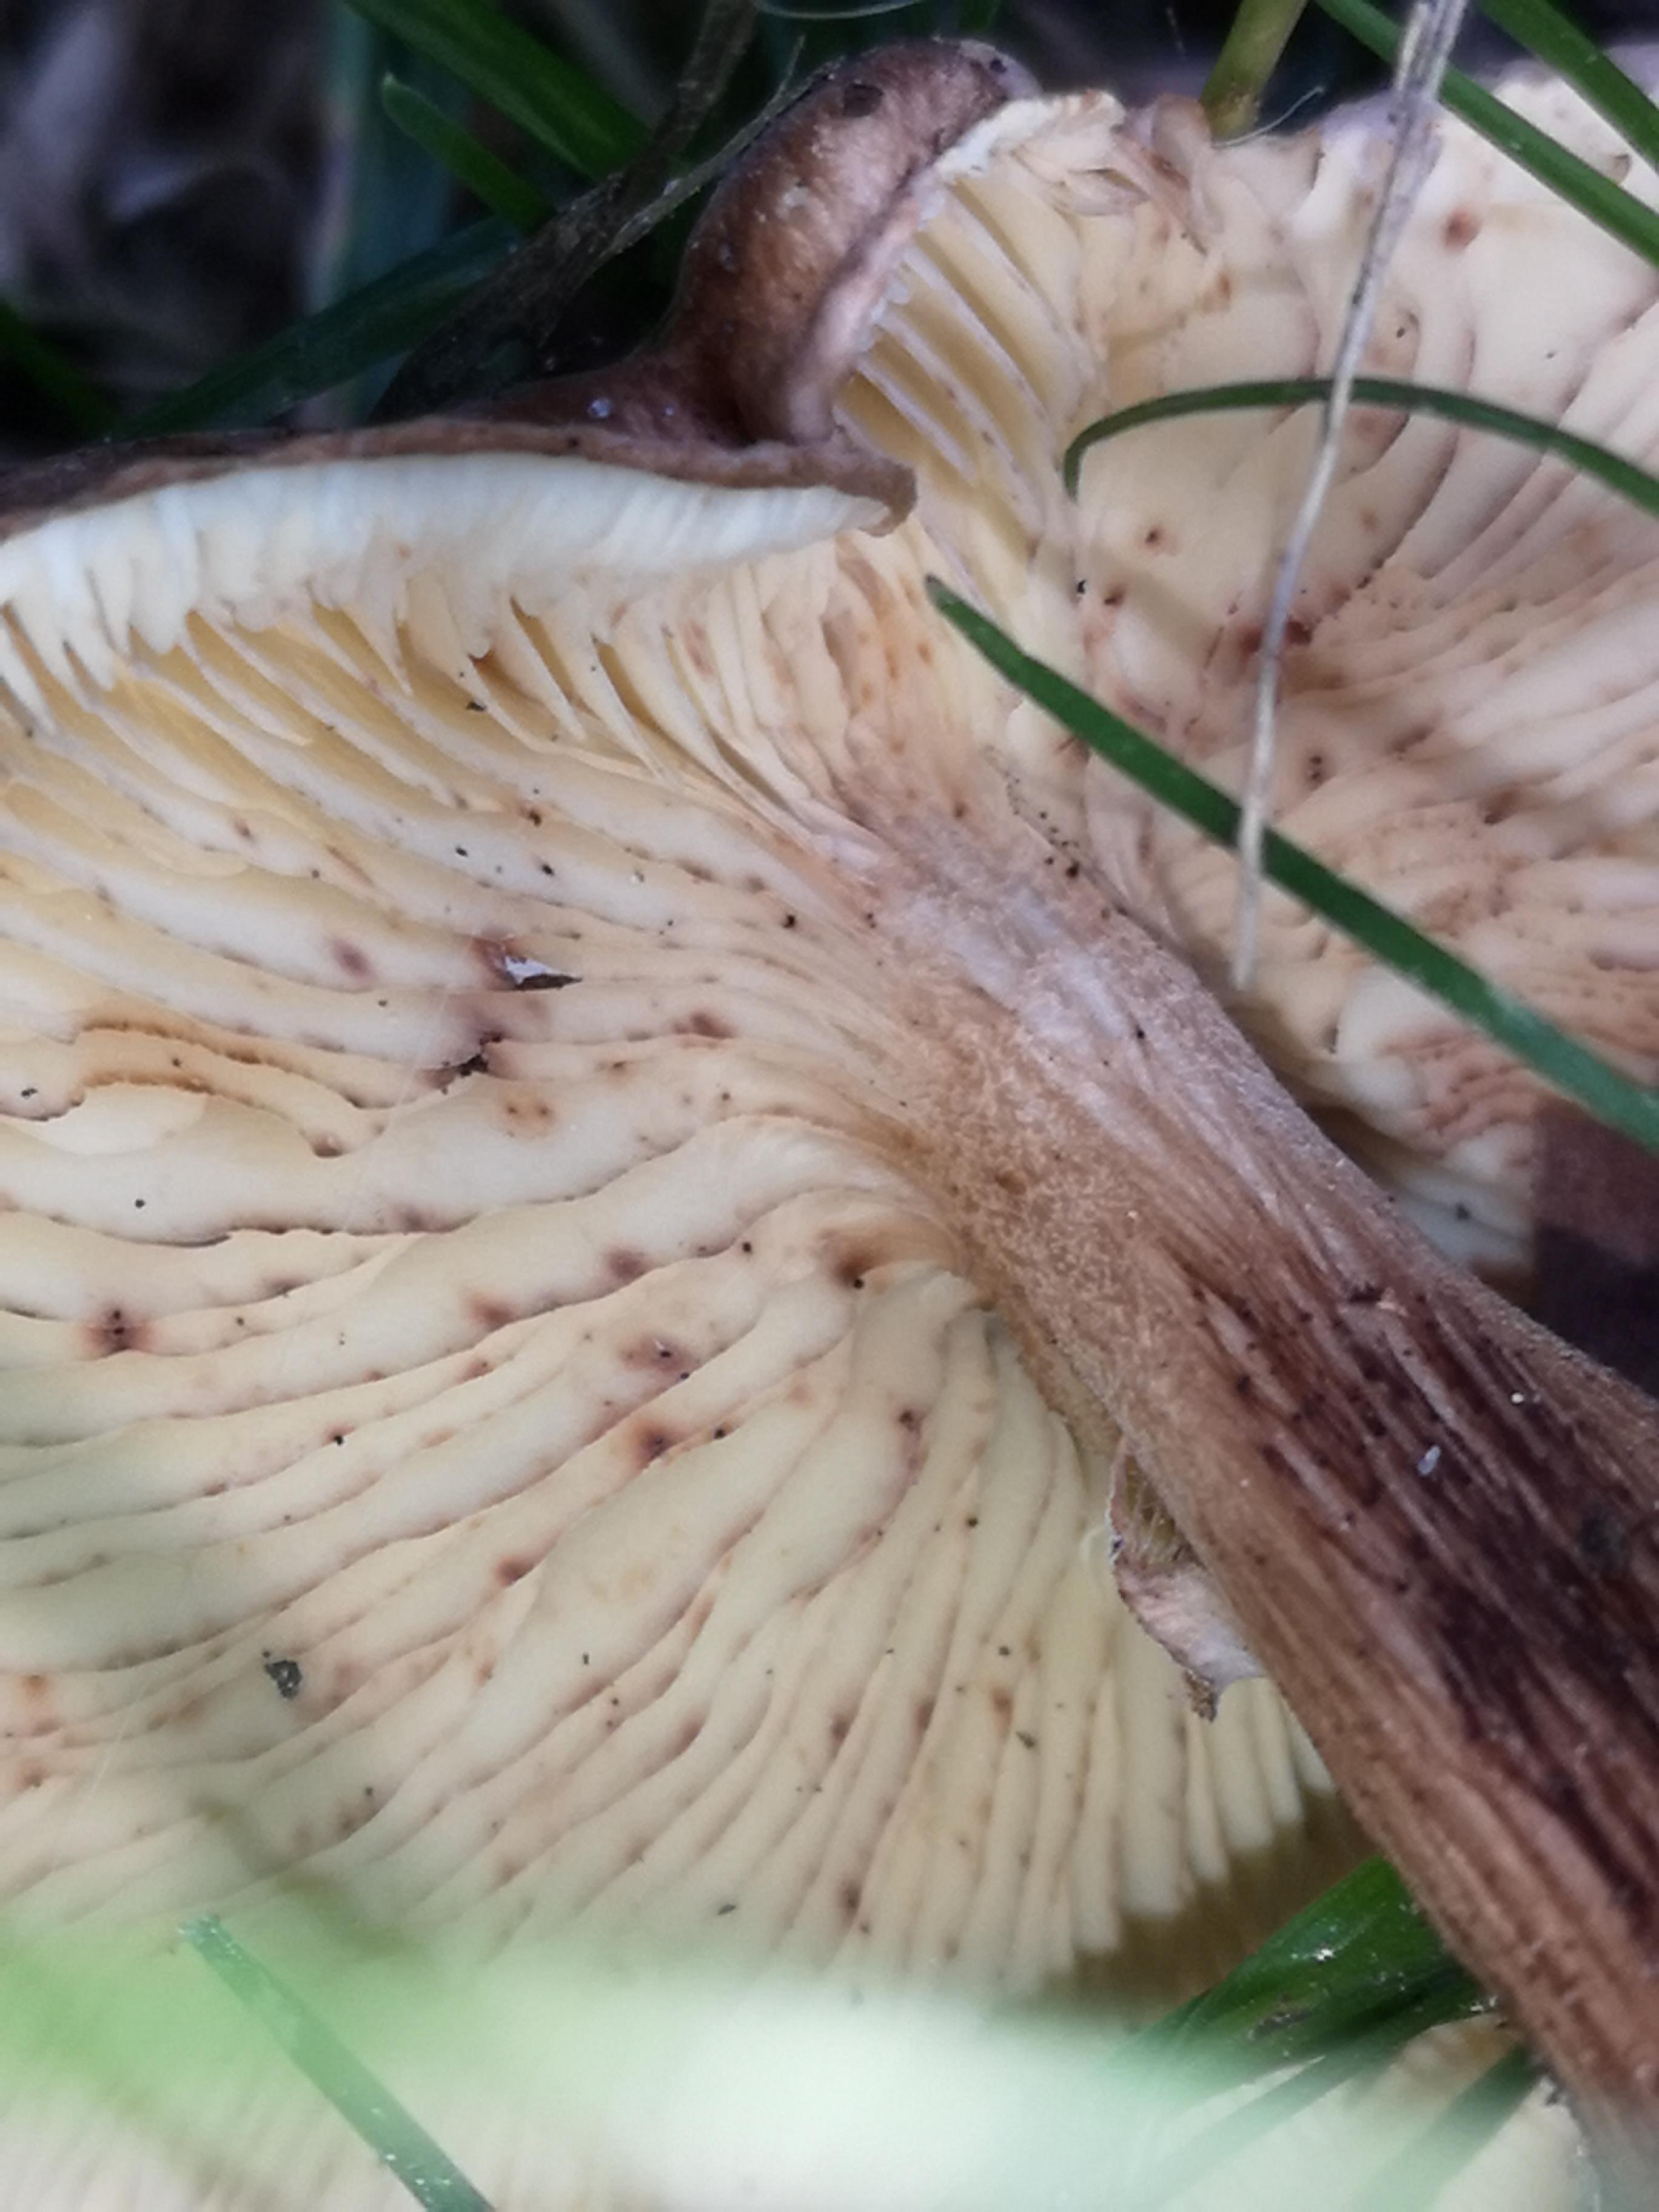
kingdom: Fungi
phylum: Basidiomycota
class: Agaricomycetes
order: Agaricales
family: Tricholomataceae
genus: Tricholoma
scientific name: Tricholoma fulvum
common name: birke-ridderhat
